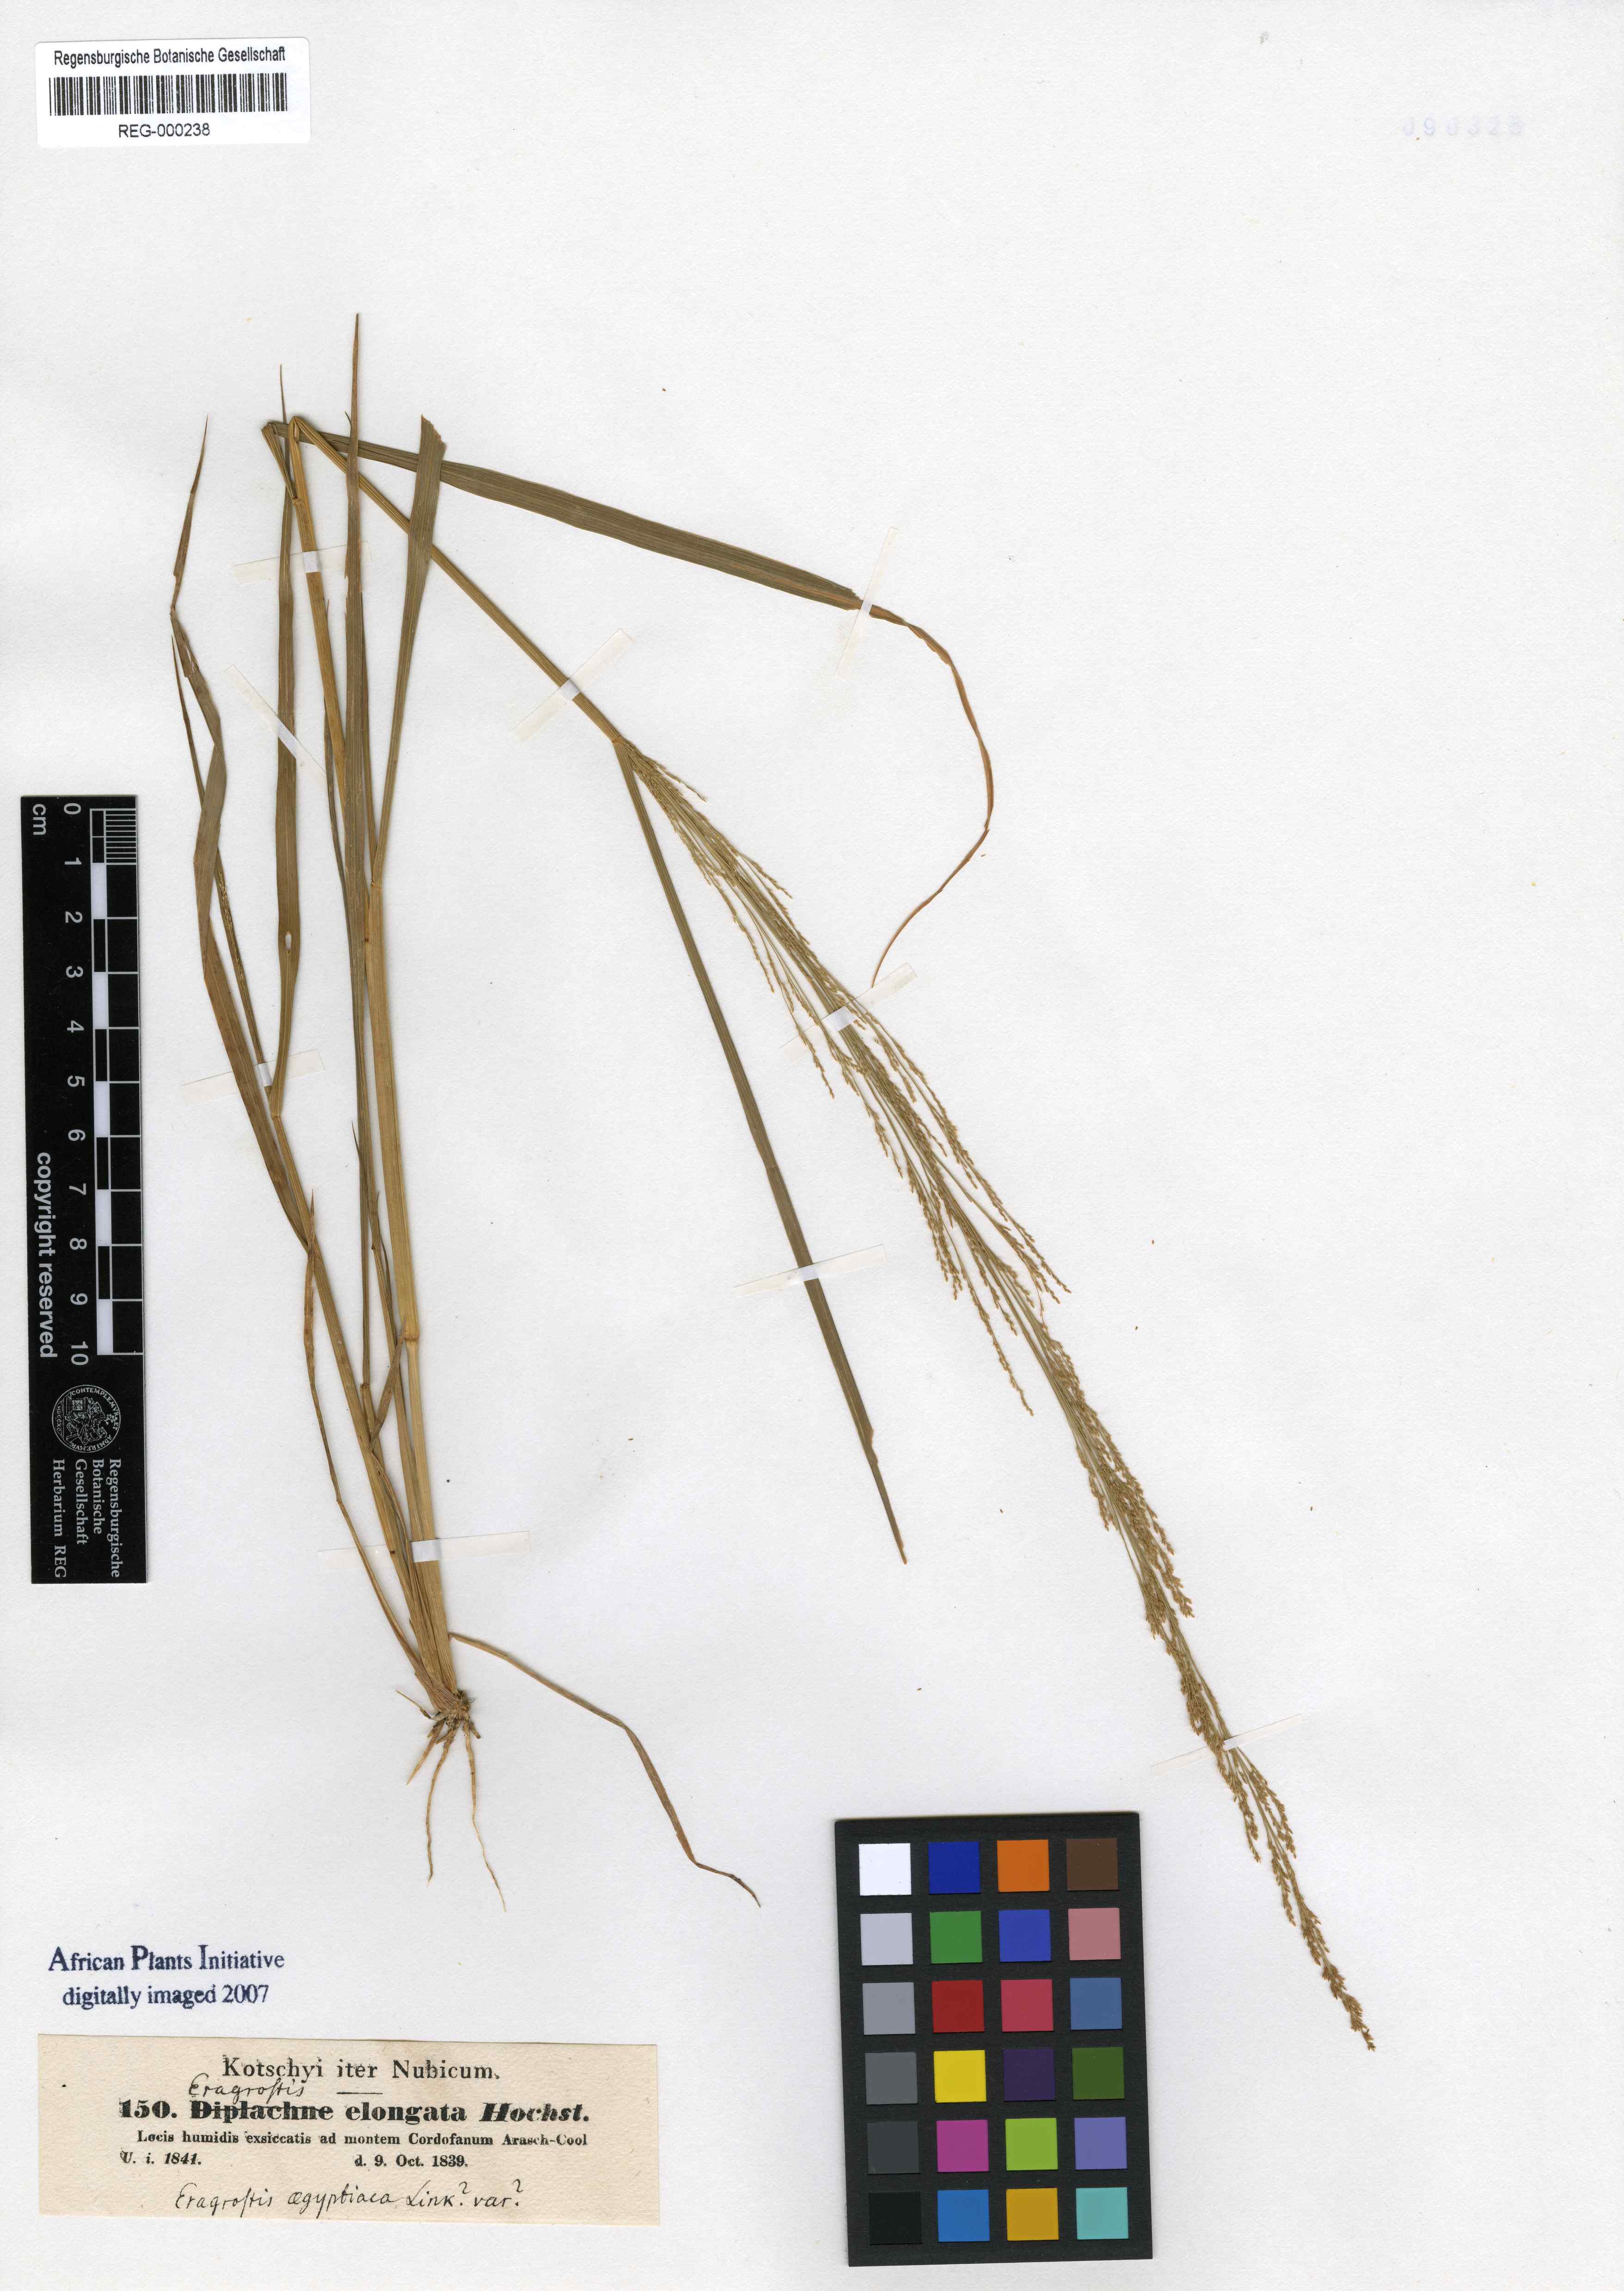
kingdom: Plantae
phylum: Tracheophyta
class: Liliopsida
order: Poales
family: Poaceae
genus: Eragrostis
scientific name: Eragrostis elongata
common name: Long lovegrass
